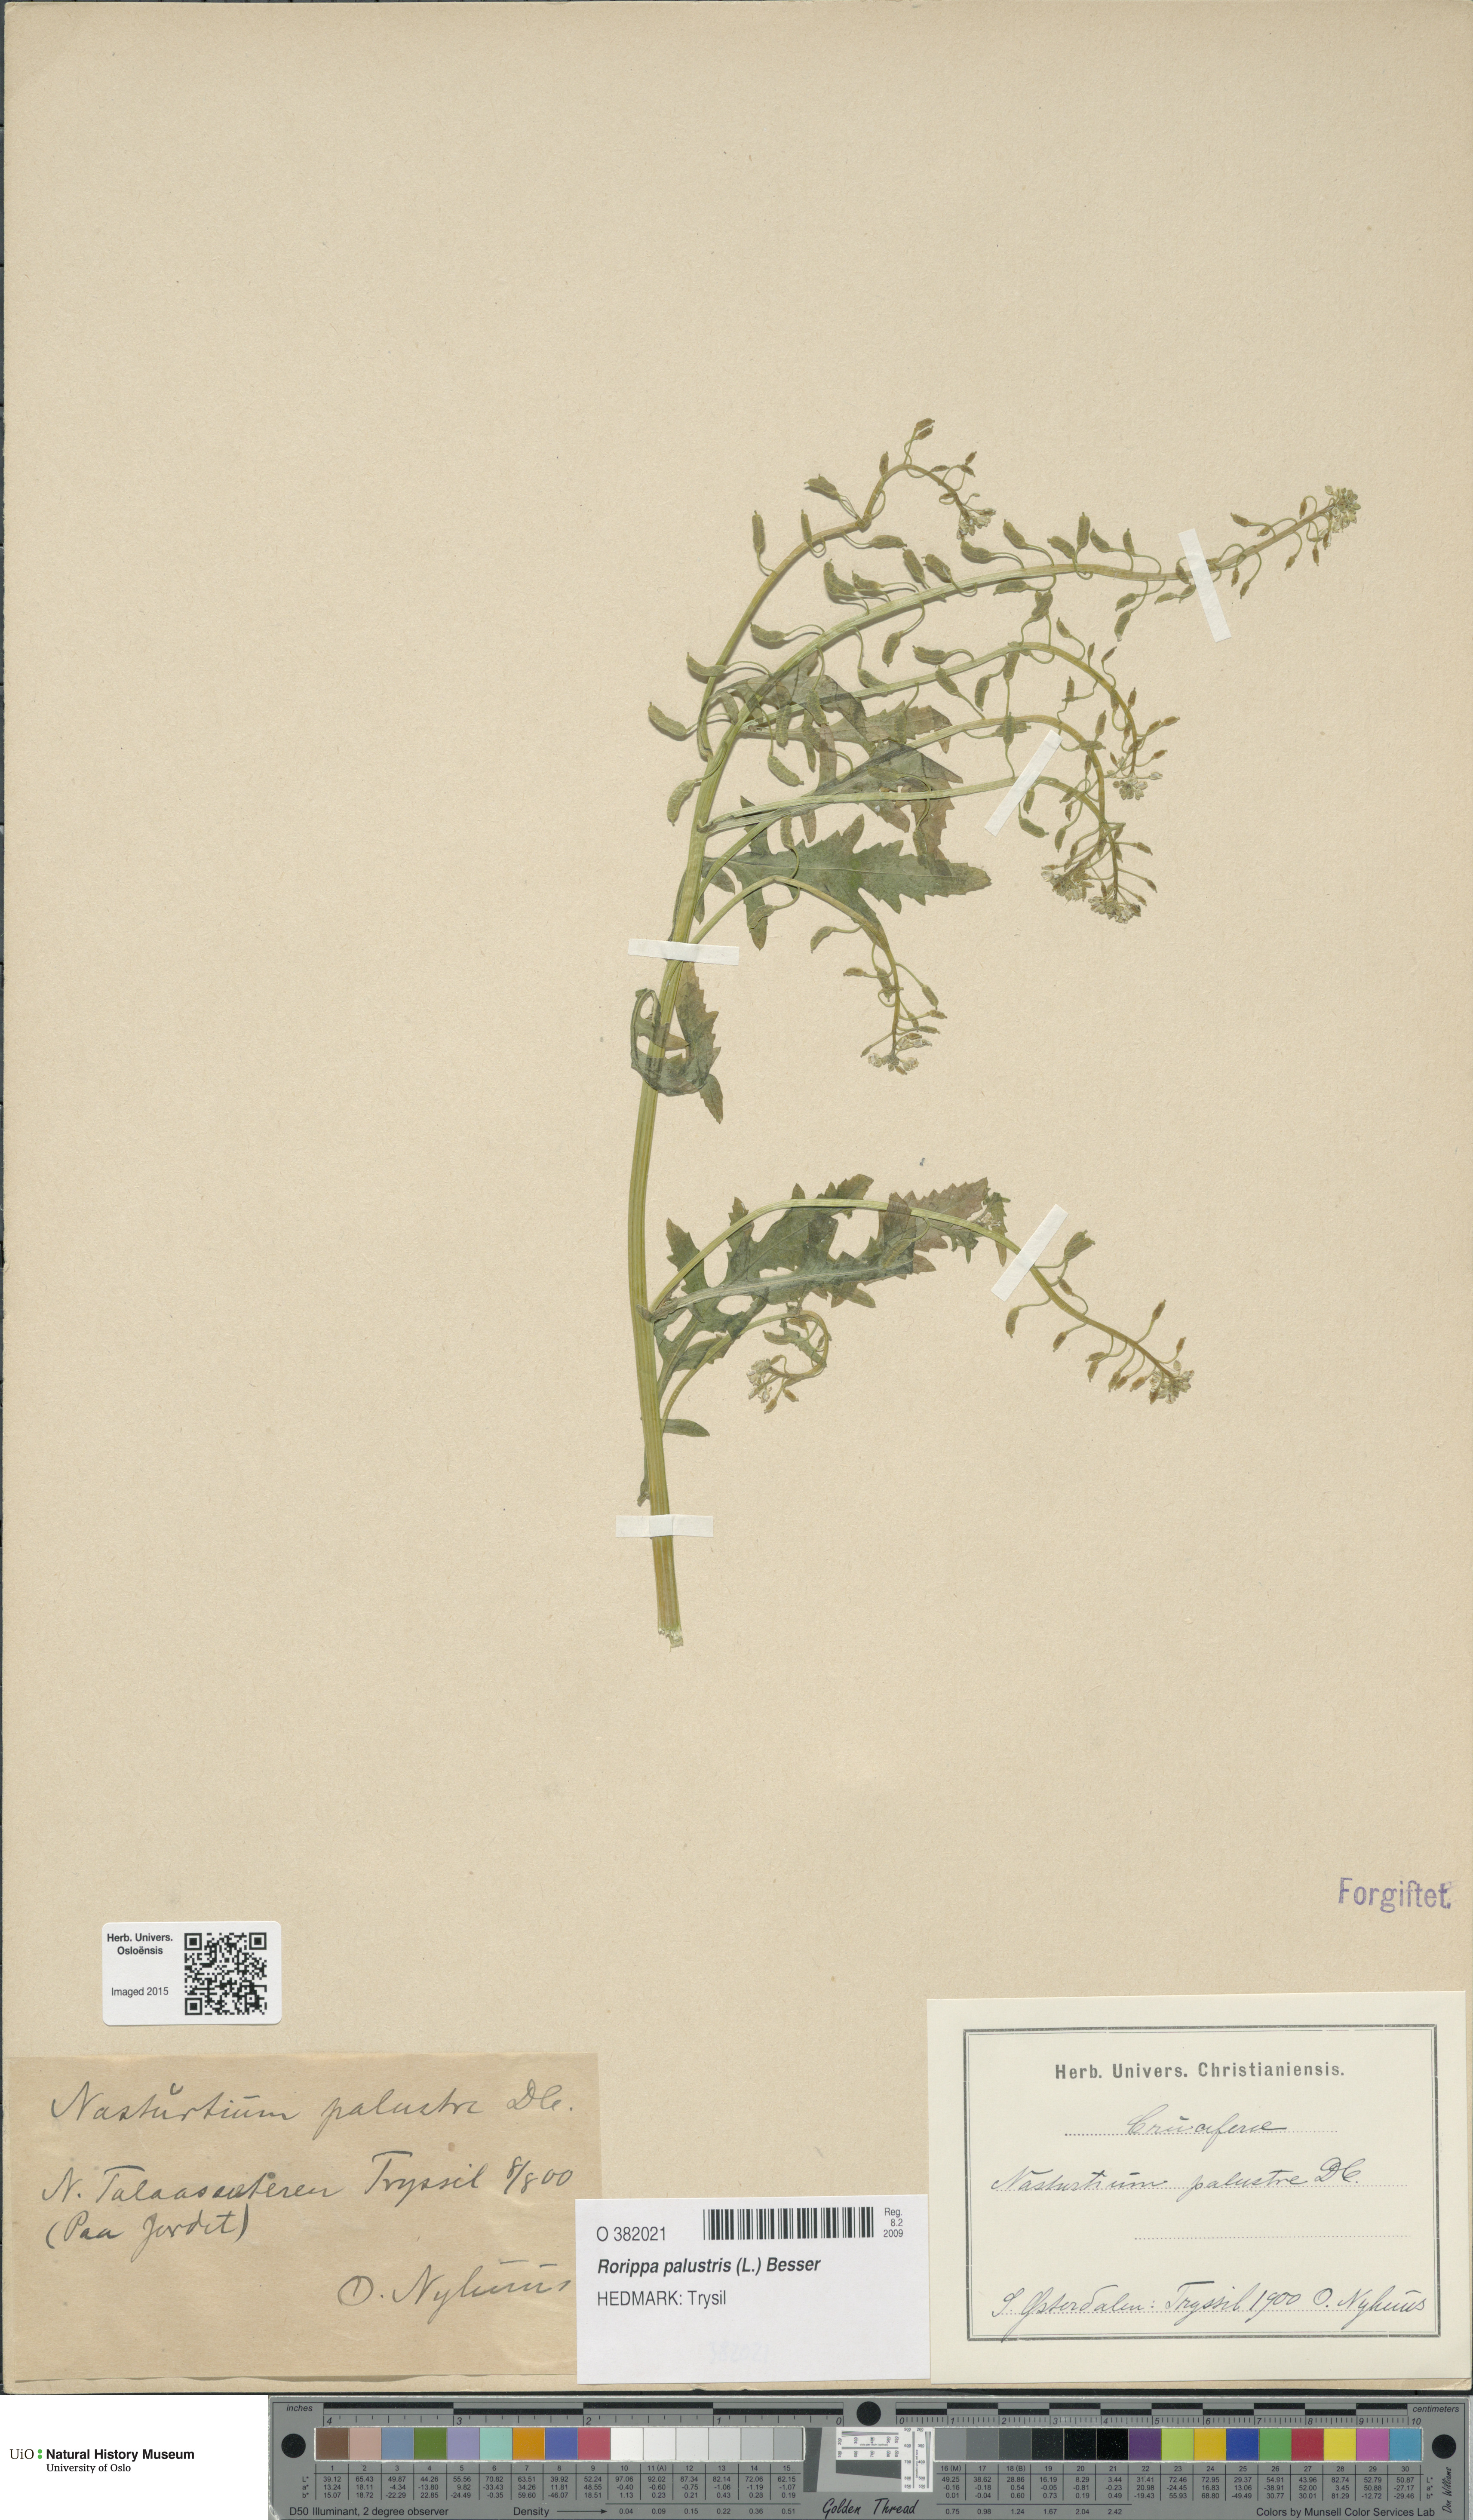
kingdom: Plantae
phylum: Tracheophyta
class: Magnoliopsida
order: Brassicales
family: Brassicaceae
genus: Rorippa
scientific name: Rorippa palustris
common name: Marsh yellow-cress
